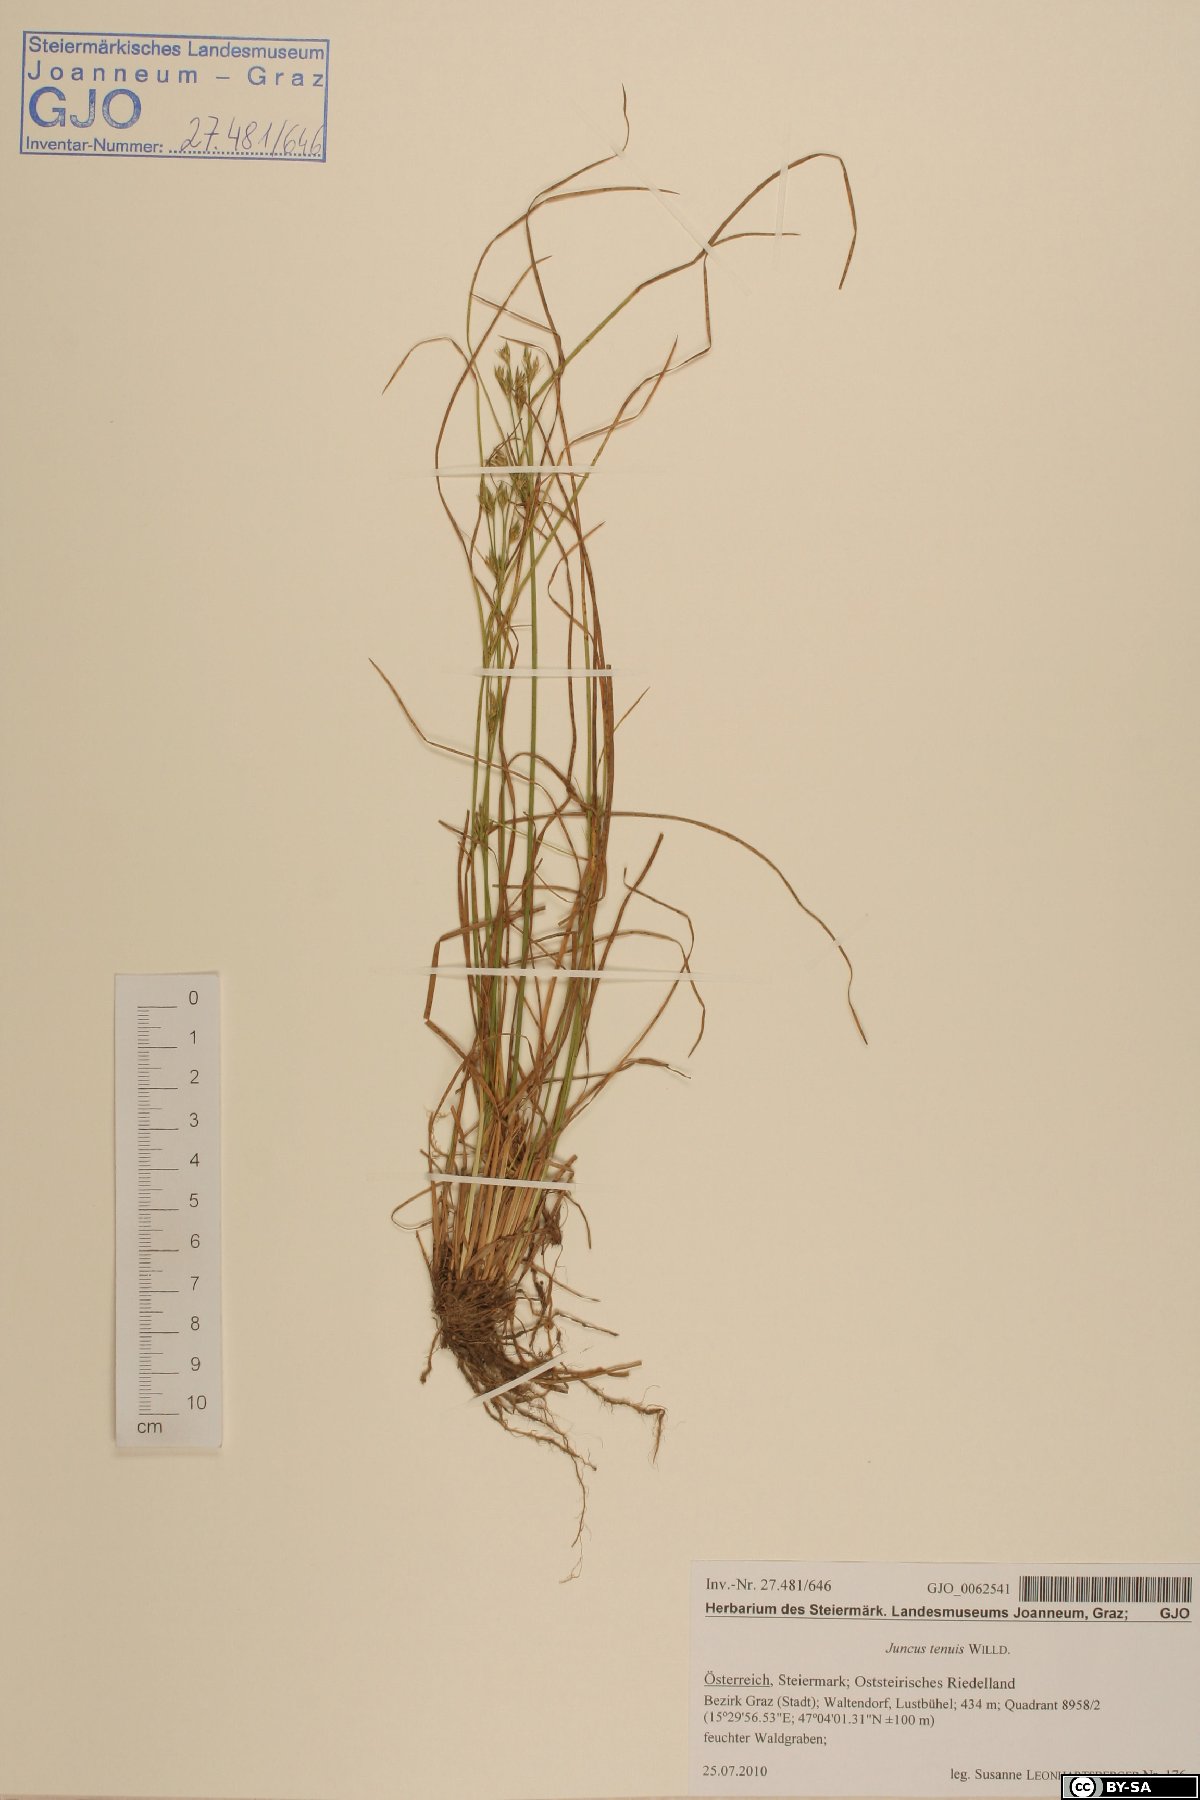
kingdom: Plantae
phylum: Tracheophyta
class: Liliopsida
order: Poales
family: Juncaceae
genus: Juncus
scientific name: Juncus tenuis
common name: Slender rush
